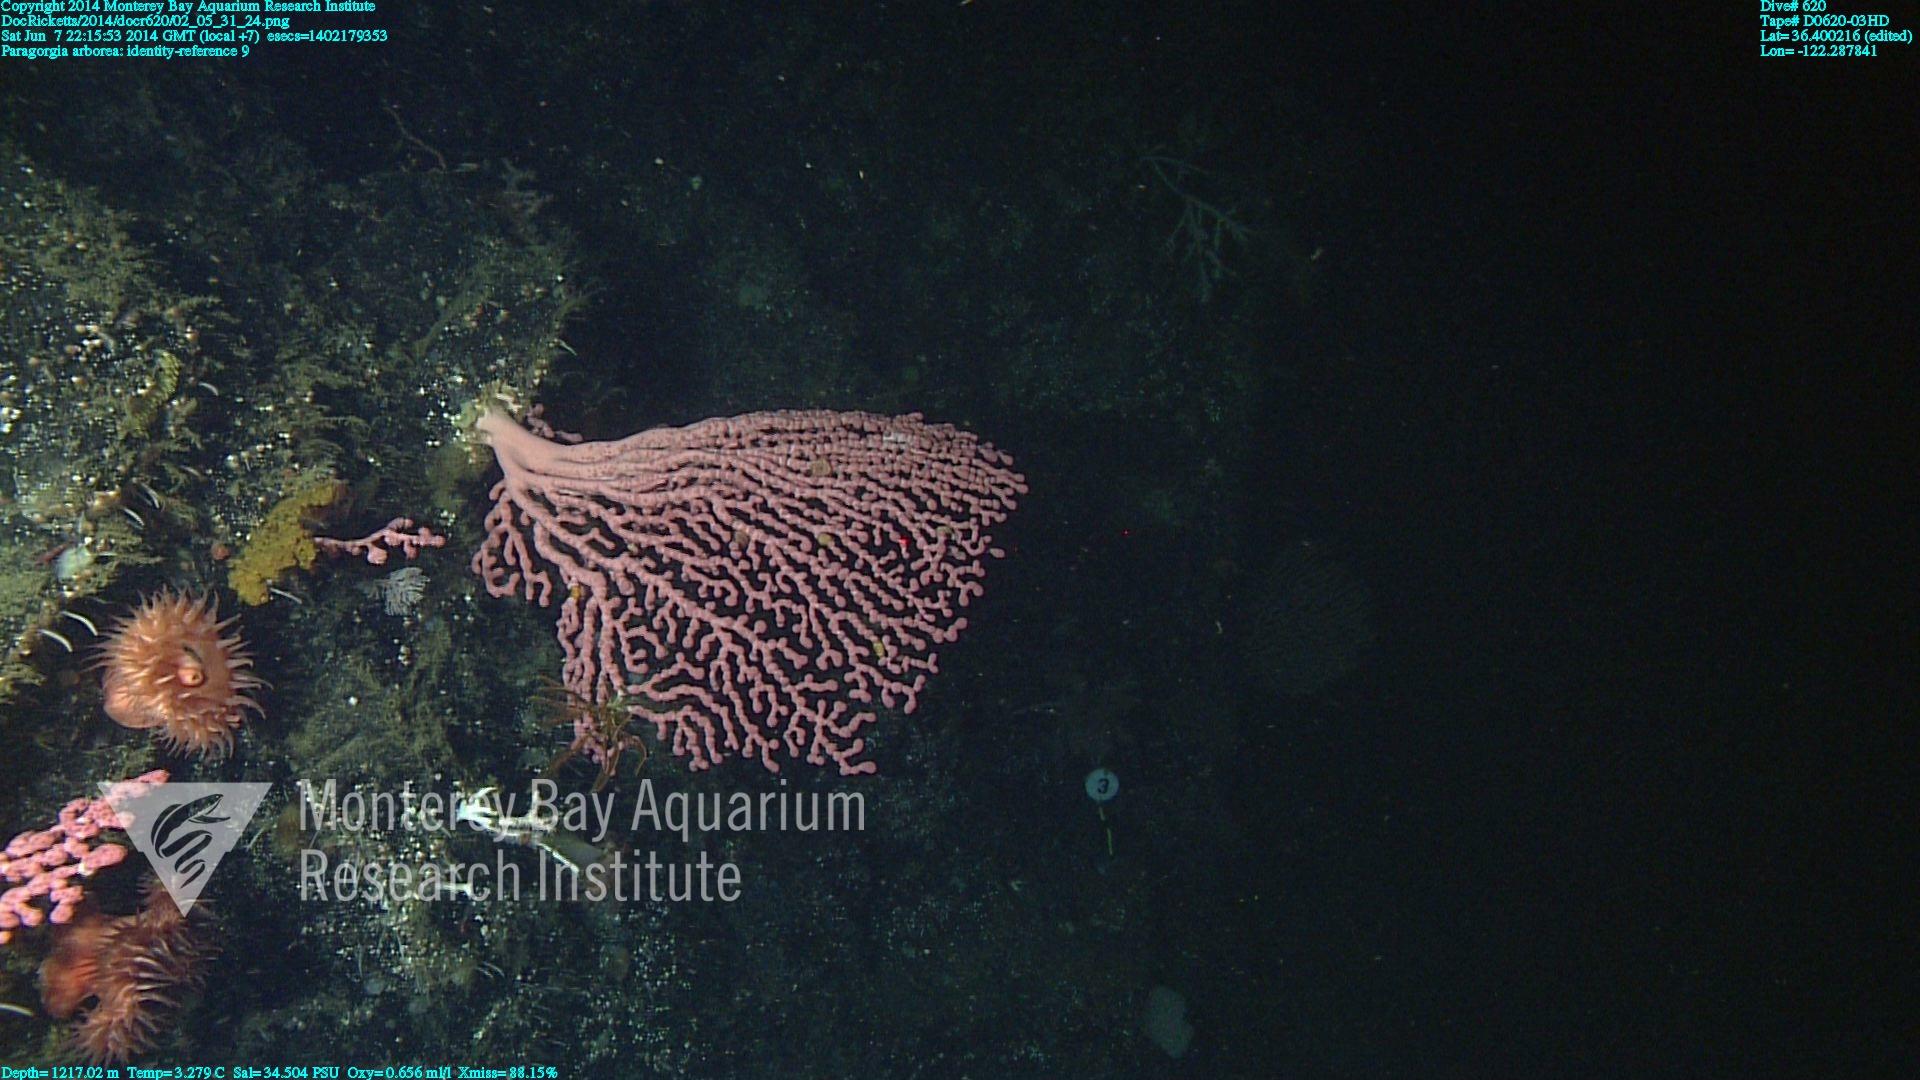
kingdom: Animalia
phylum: Cnidaria
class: Anthozoa
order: Scleralcyonacea
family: Coralliidae
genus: Paragorgia
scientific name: Paragorgia arborea
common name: Bubble gum coral
